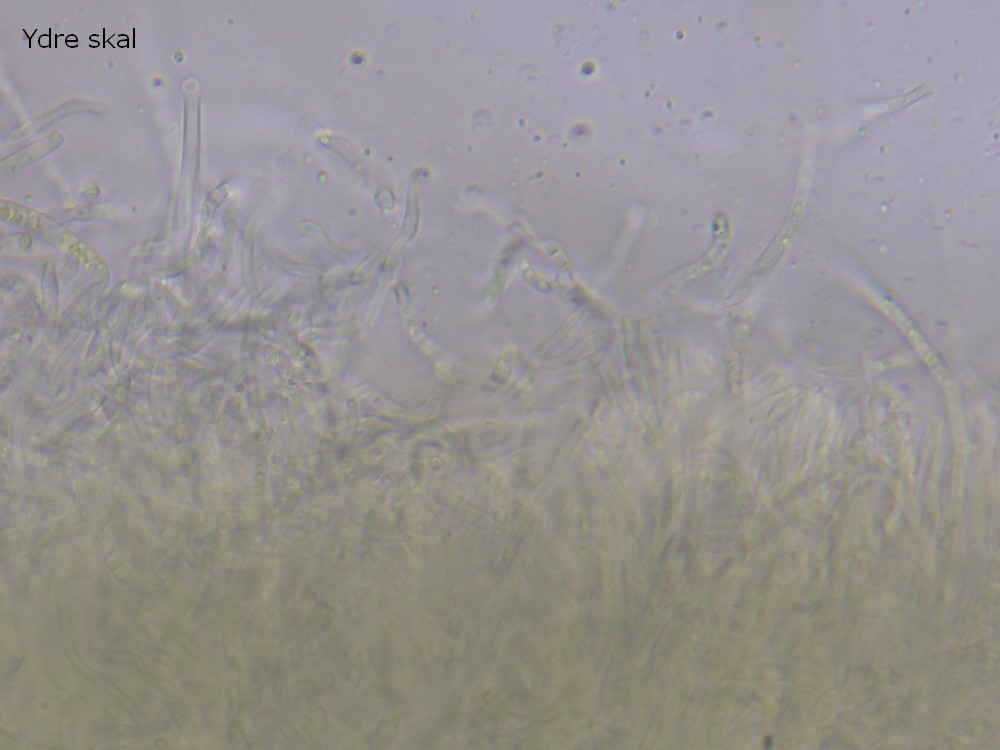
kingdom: Fungi
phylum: Ascomycota
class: Leotiomycetes
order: Helotiales
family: Lachnaceae
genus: Lachnellula
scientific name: Lachnellula pseudofarinacea
